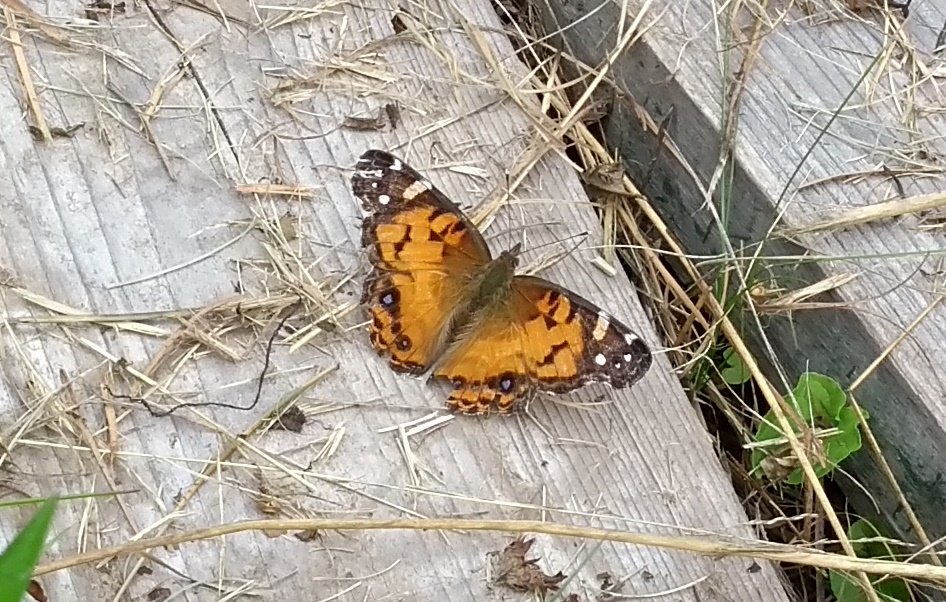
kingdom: Animalia
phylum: Arthropoda
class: Insecta
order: Lepidoptera
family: Nymphalidae
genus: Vanessa
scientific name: Vanessa virginiensis
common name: American Lady
